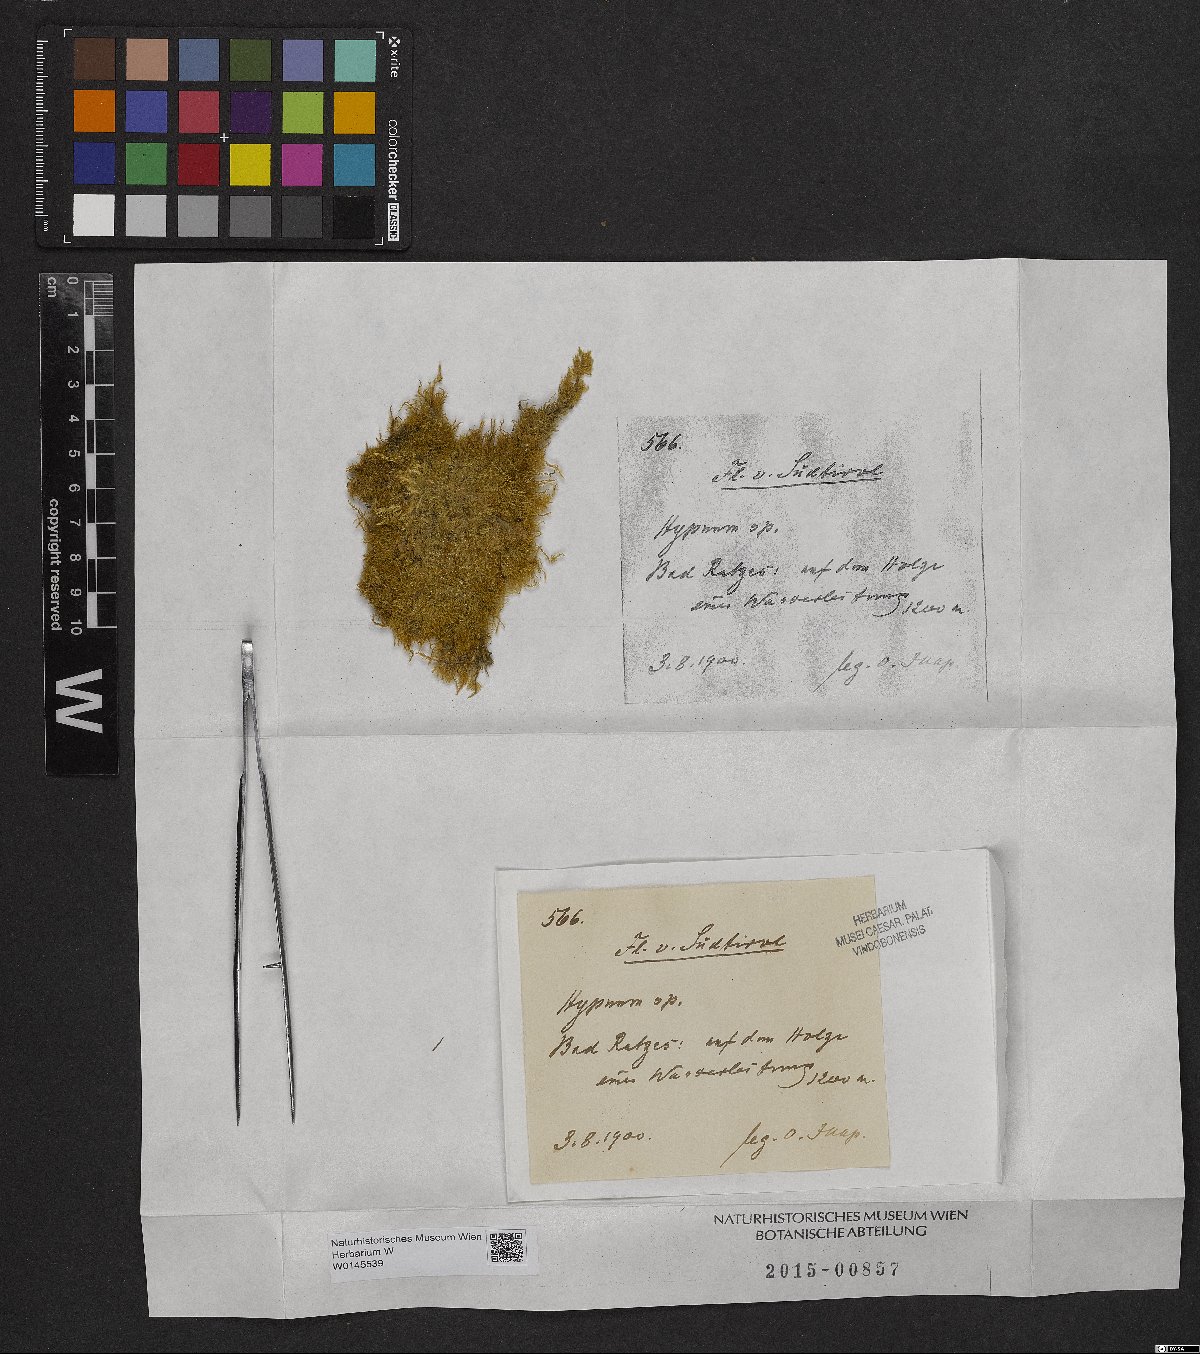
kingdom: Plantae
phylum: Bryophyta
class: Bryopsida
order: Hypnales
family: Hypnaceae
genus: Hypnum
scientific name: Hypnum
